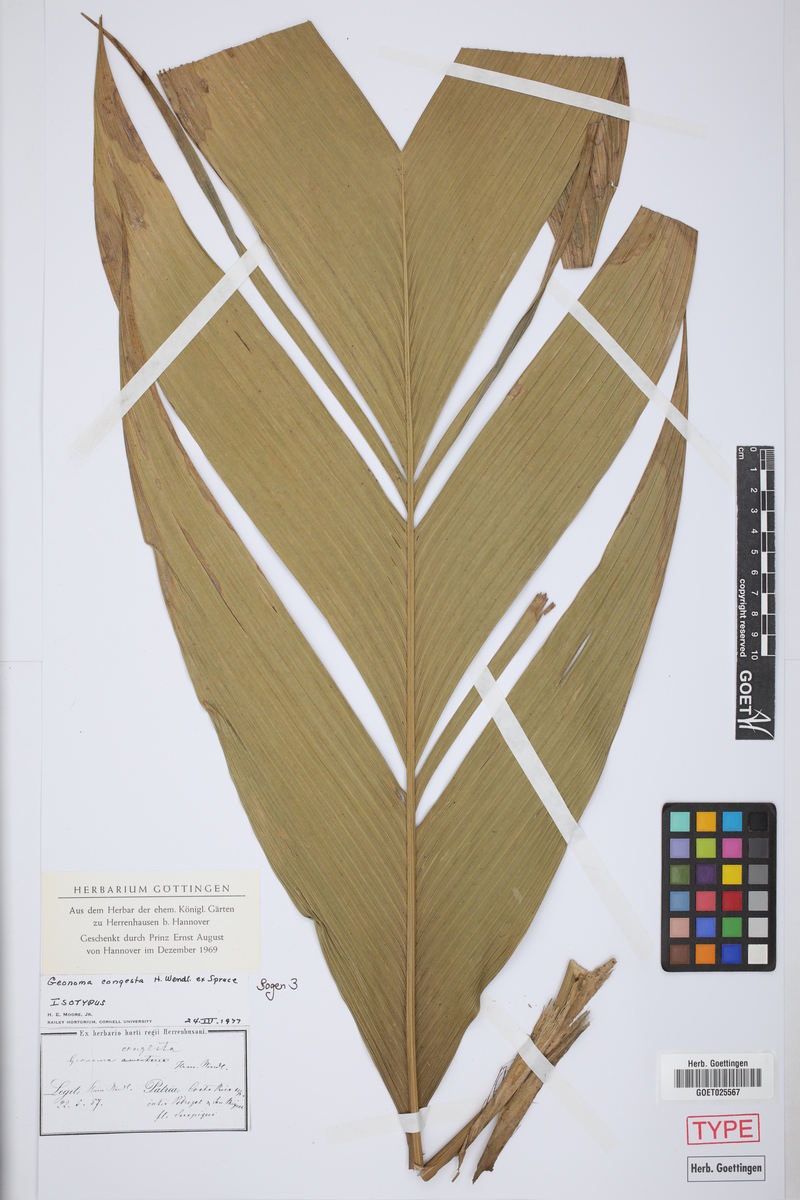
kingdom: Plantae
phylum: Tracheophyta
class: Liliopsida
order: Arecales
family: Arecaceae
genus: Geonoma
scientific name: Geonoma congesta
